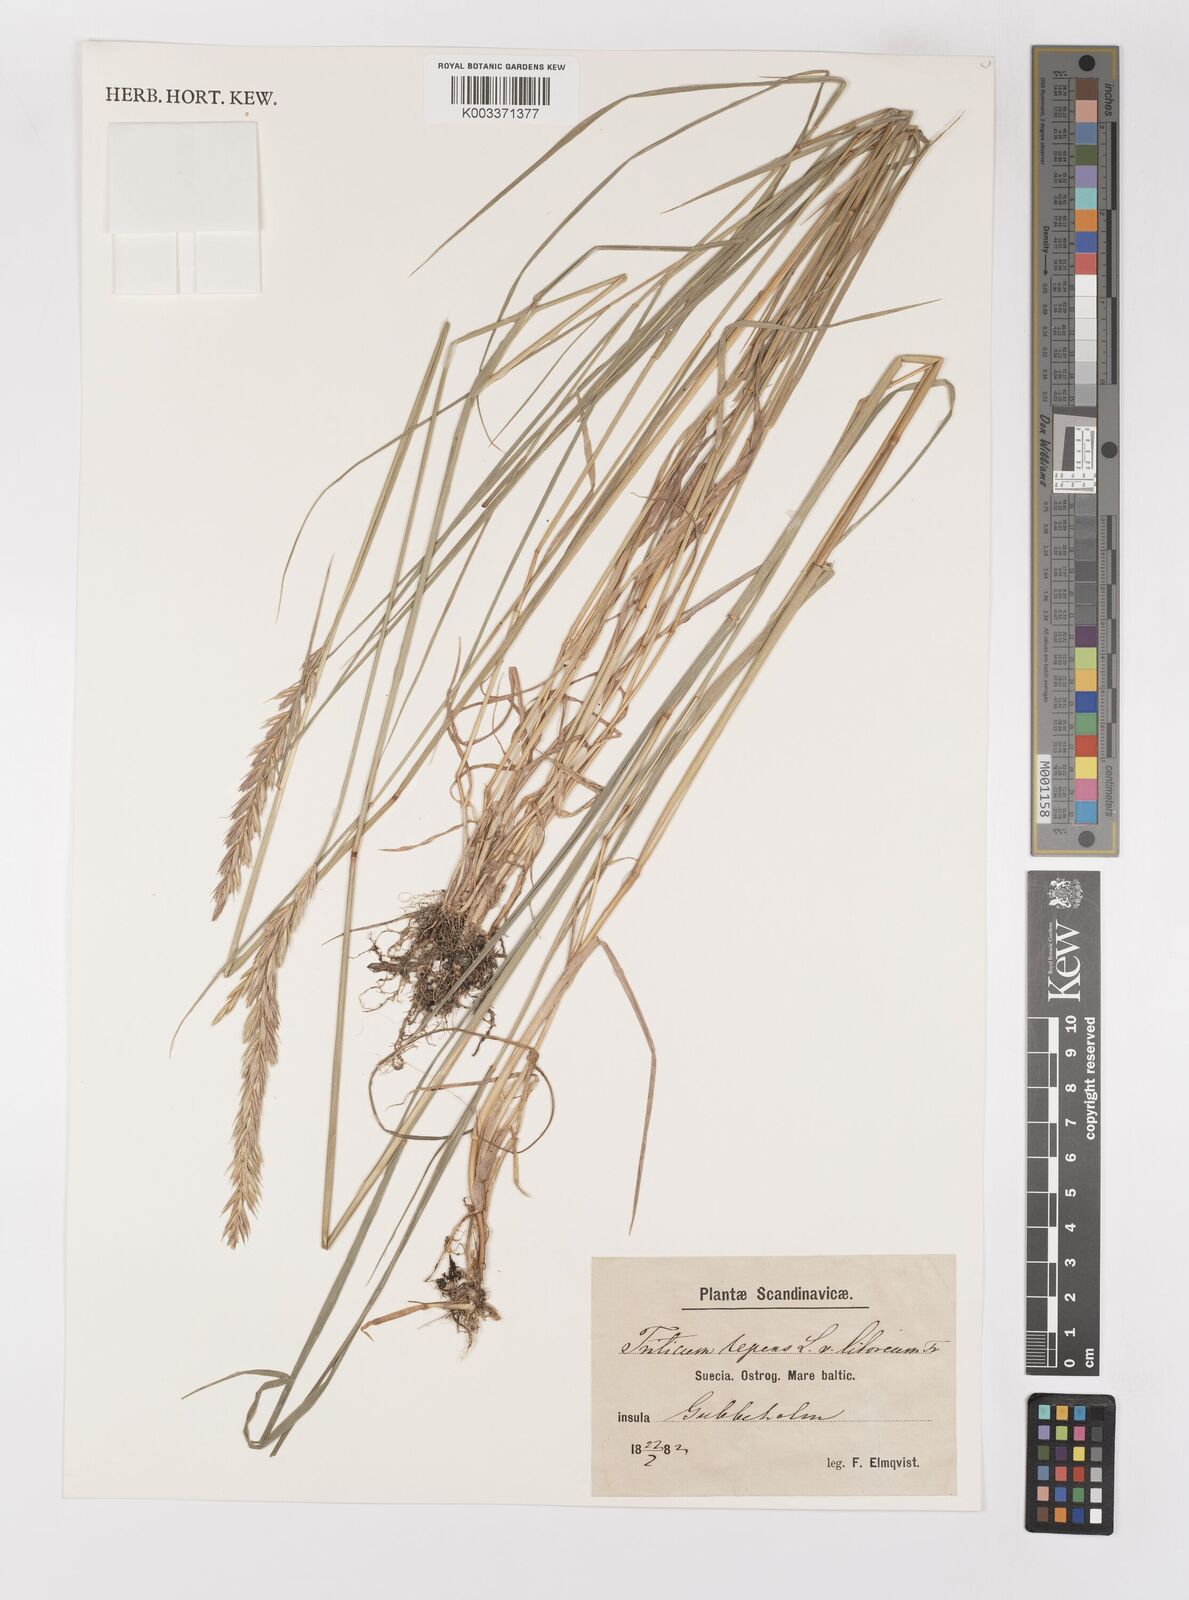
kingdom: Plantae
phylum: Tracheophyta
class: Liliopsida
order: Poales
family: Poaceae
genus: Elymus
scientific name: Elymus repens
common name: Quackgrass
